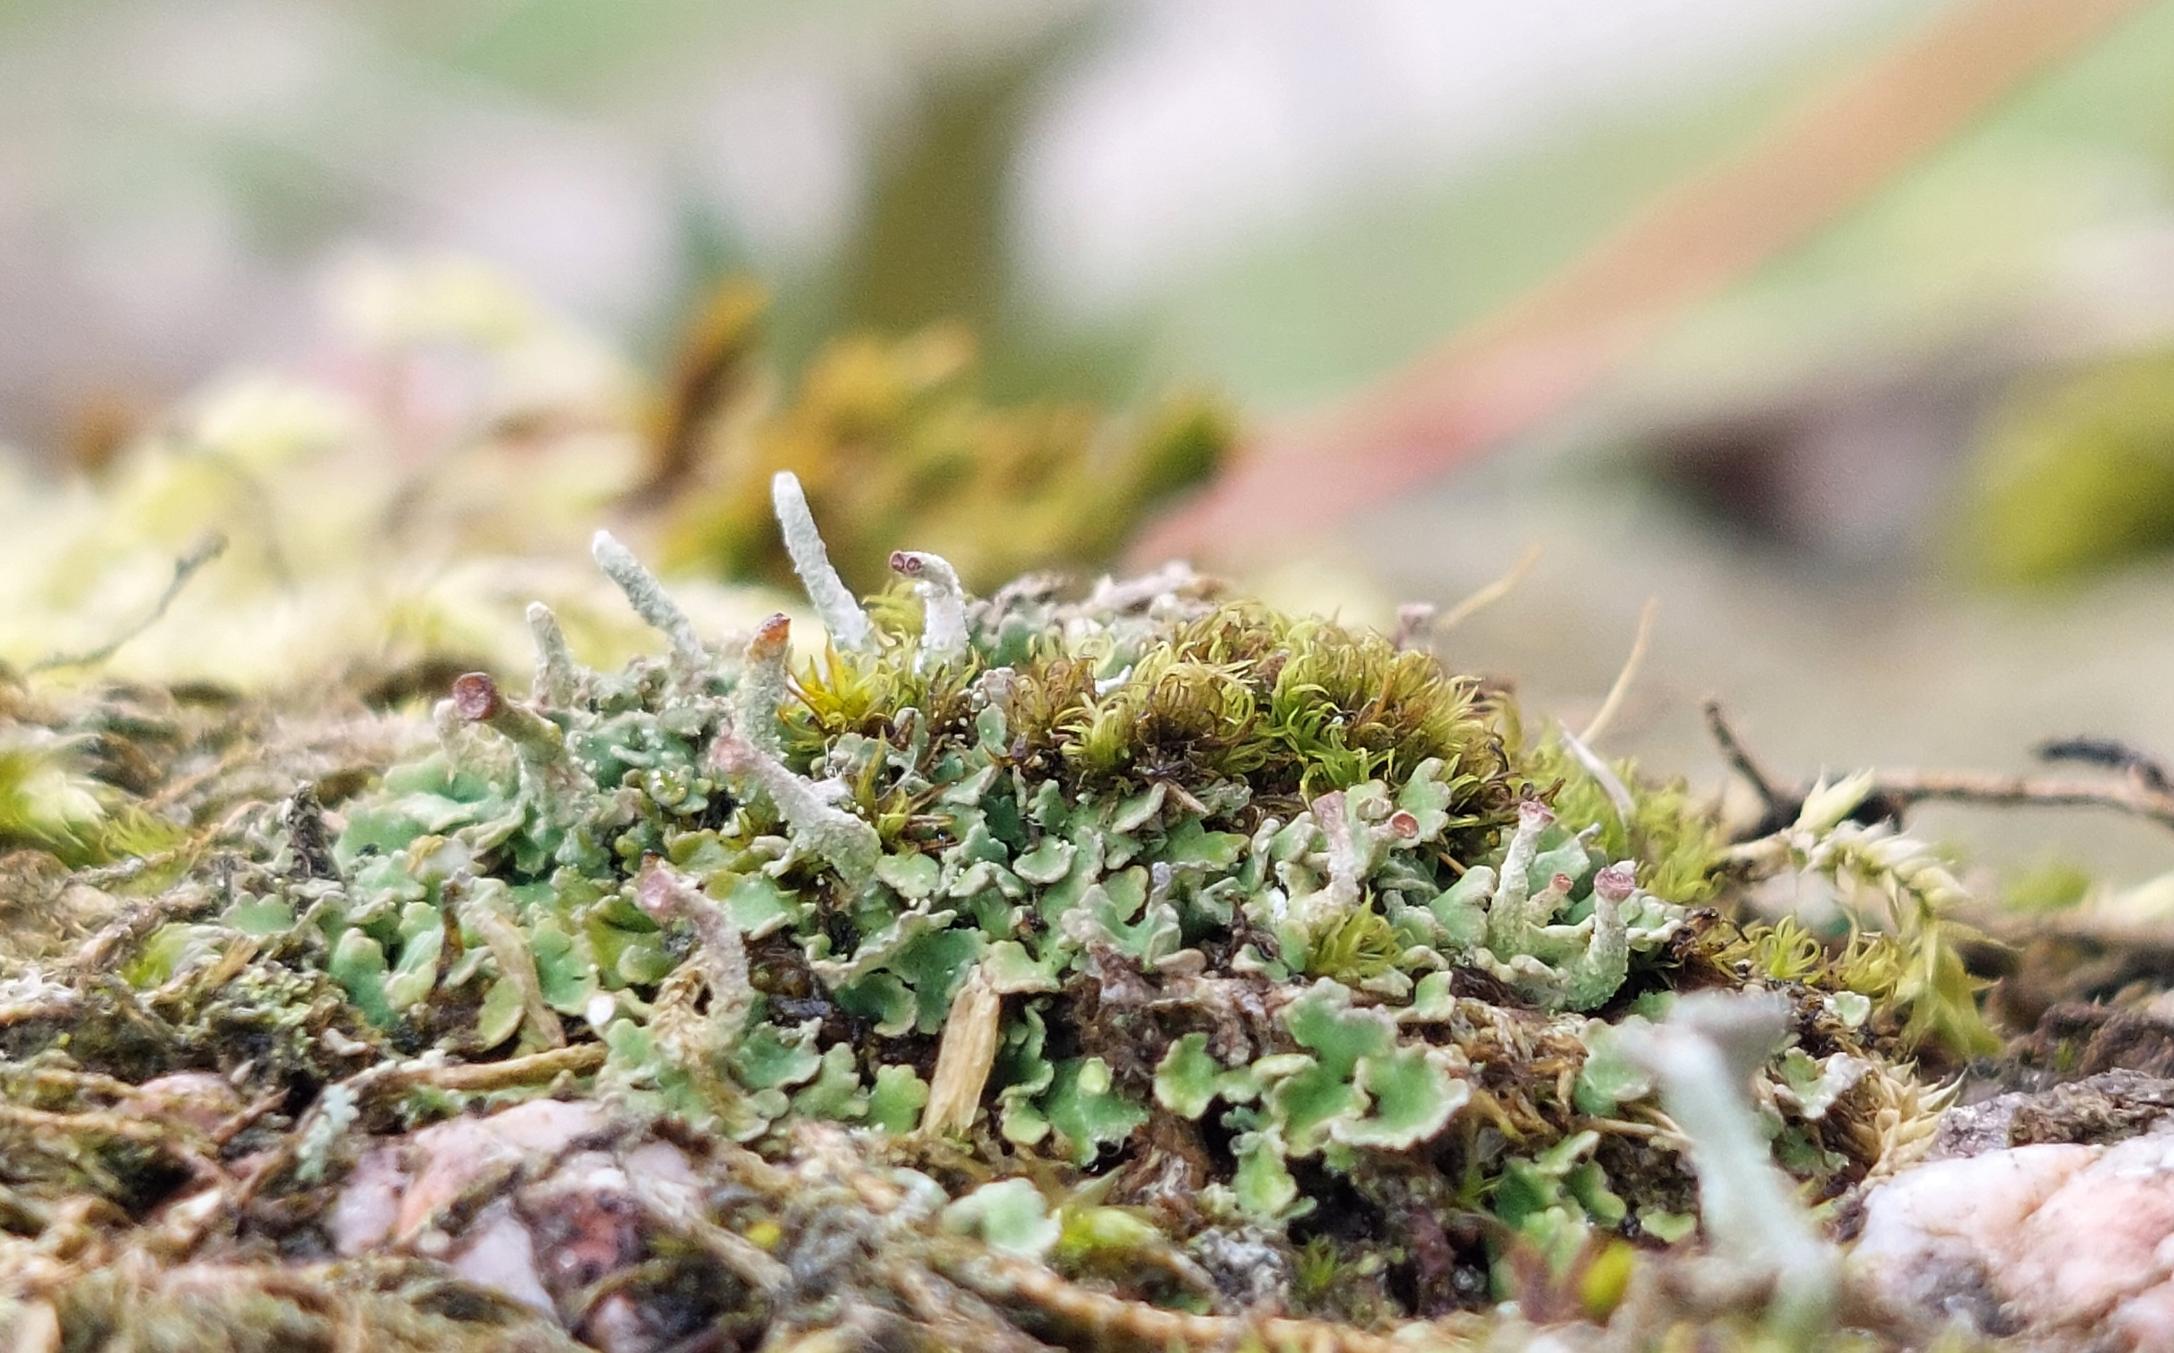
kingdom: Fungi
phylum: Ascomycota
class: Lecanoromycetes
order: Lecanorales
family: Cladoniaceae
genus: Cladonia
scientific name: Cladonia chlorophaea
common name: Brungrøn bægerlav
